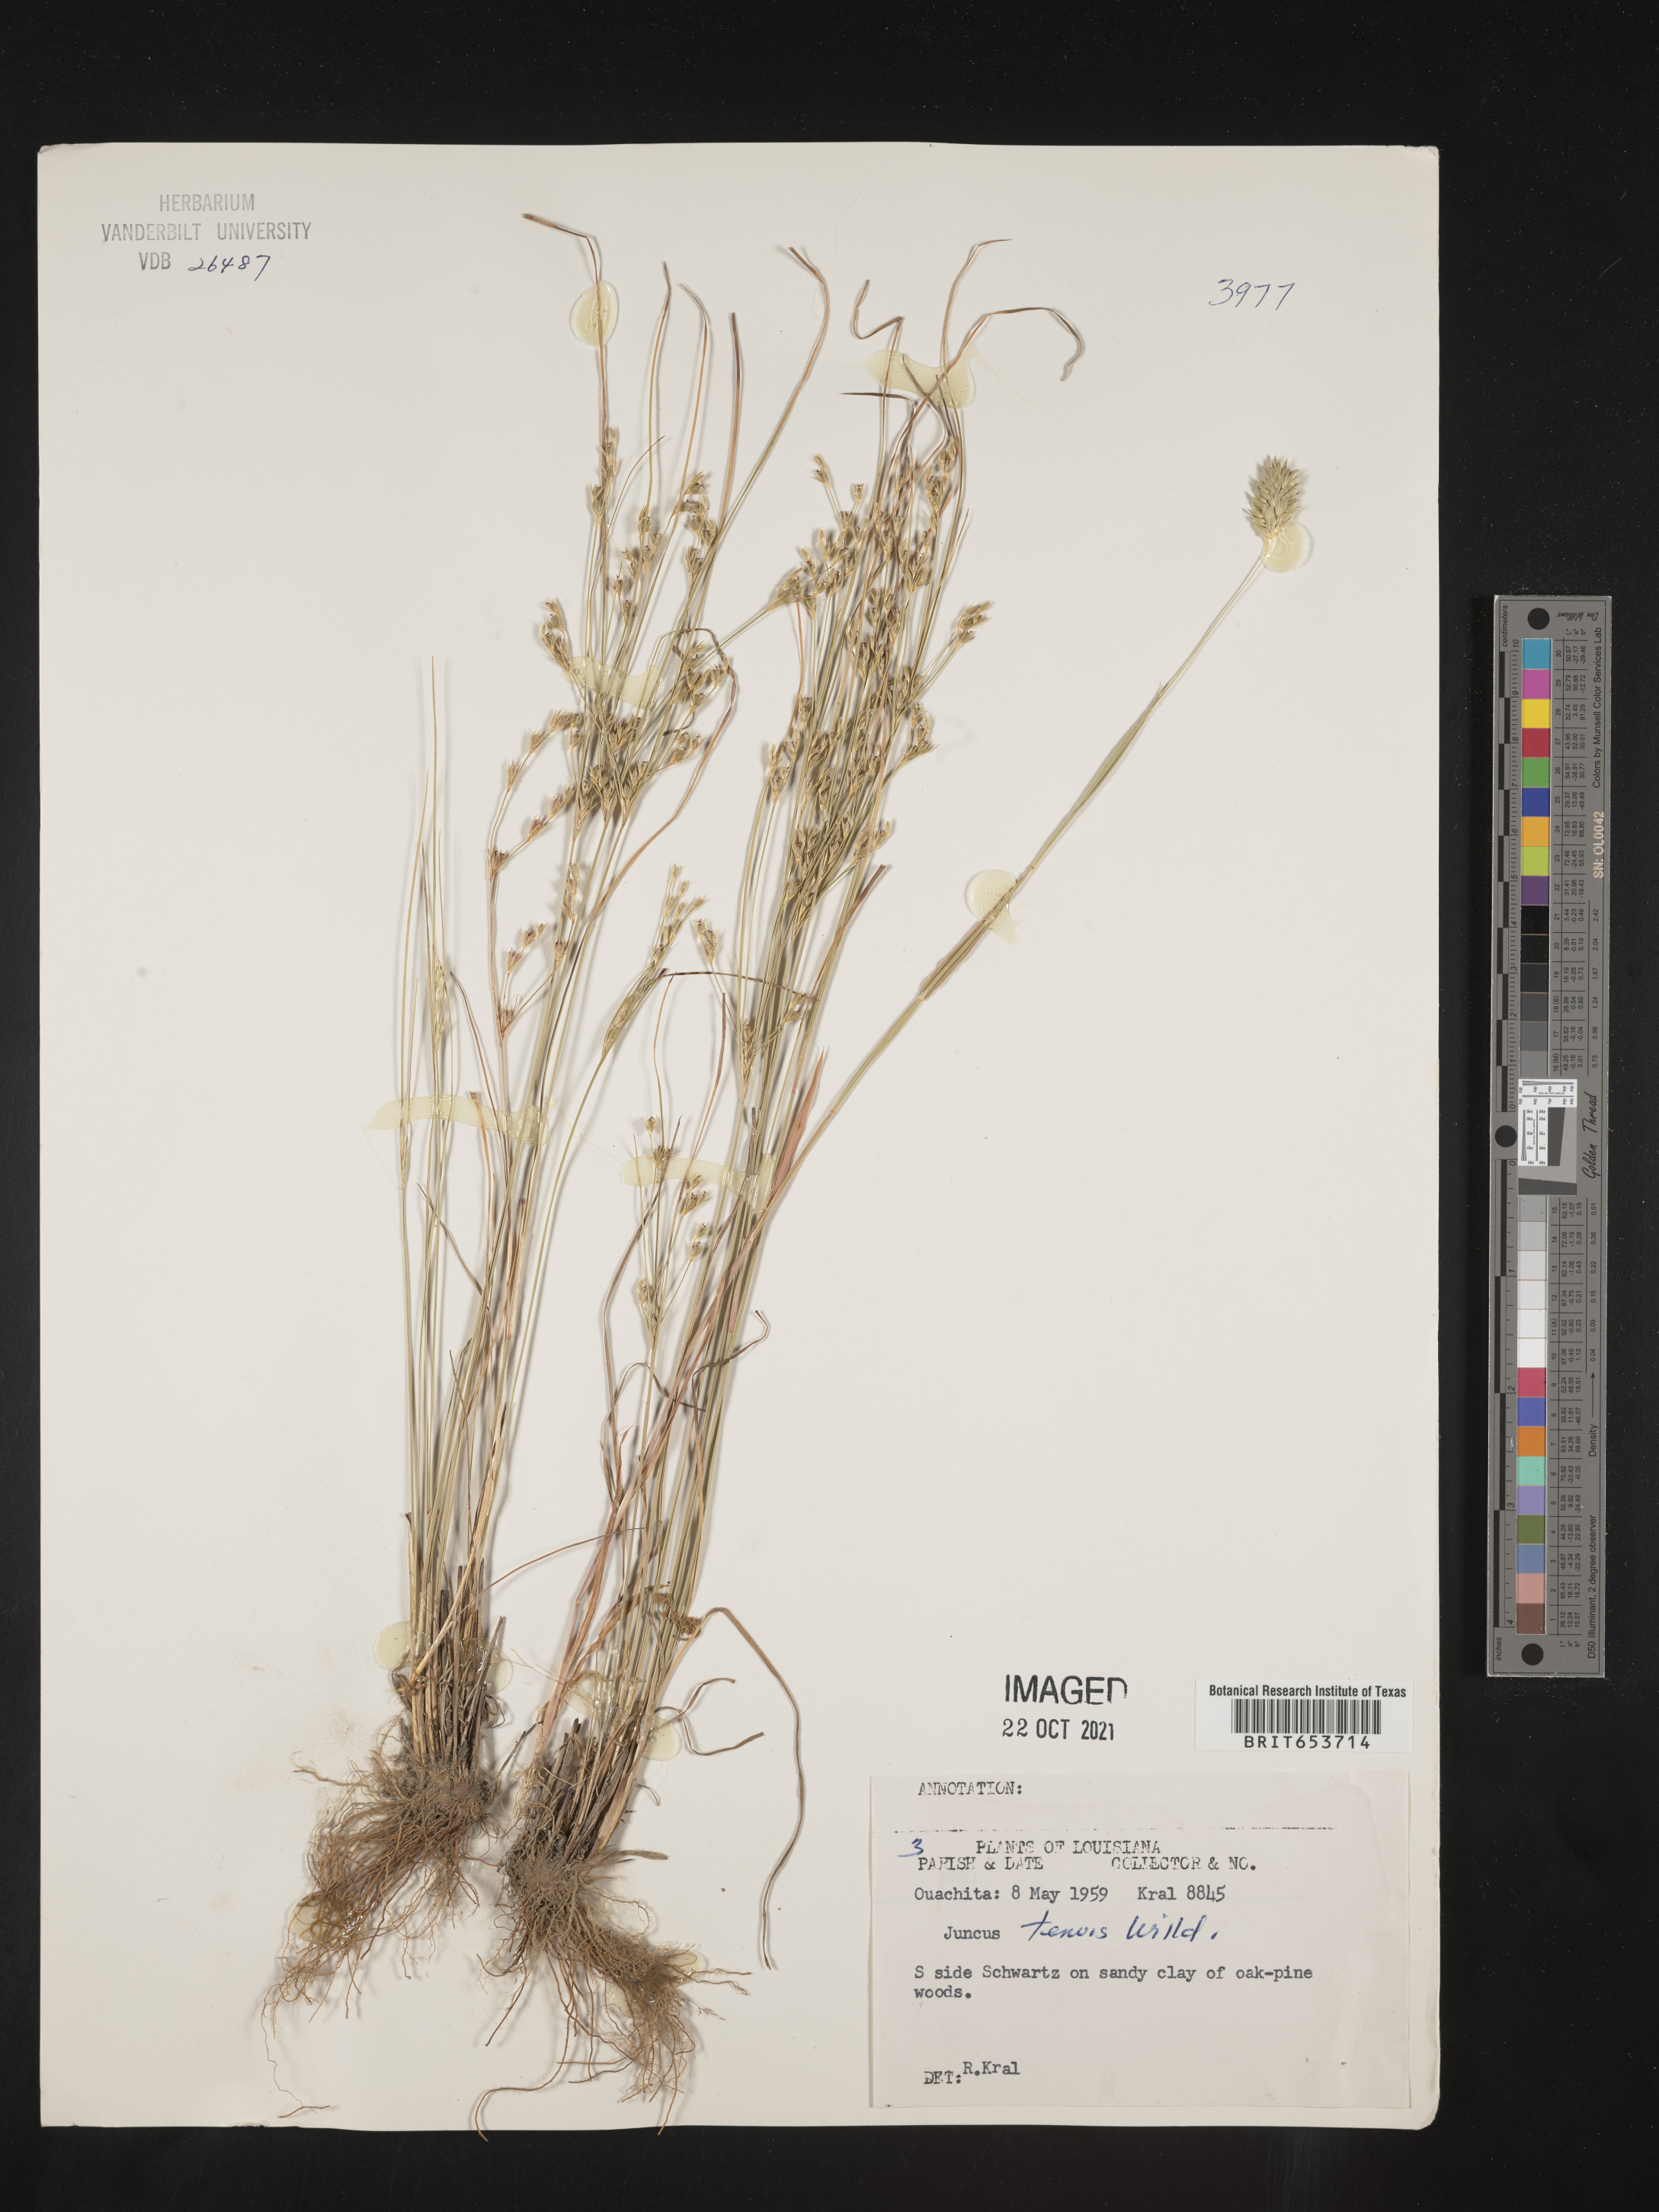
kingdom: Plantae
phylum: Tracheophyta
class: Liliopsida
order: Poales
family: Juncaceae
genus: Juncus
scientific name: Juncus tenuis
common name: Slender rush
